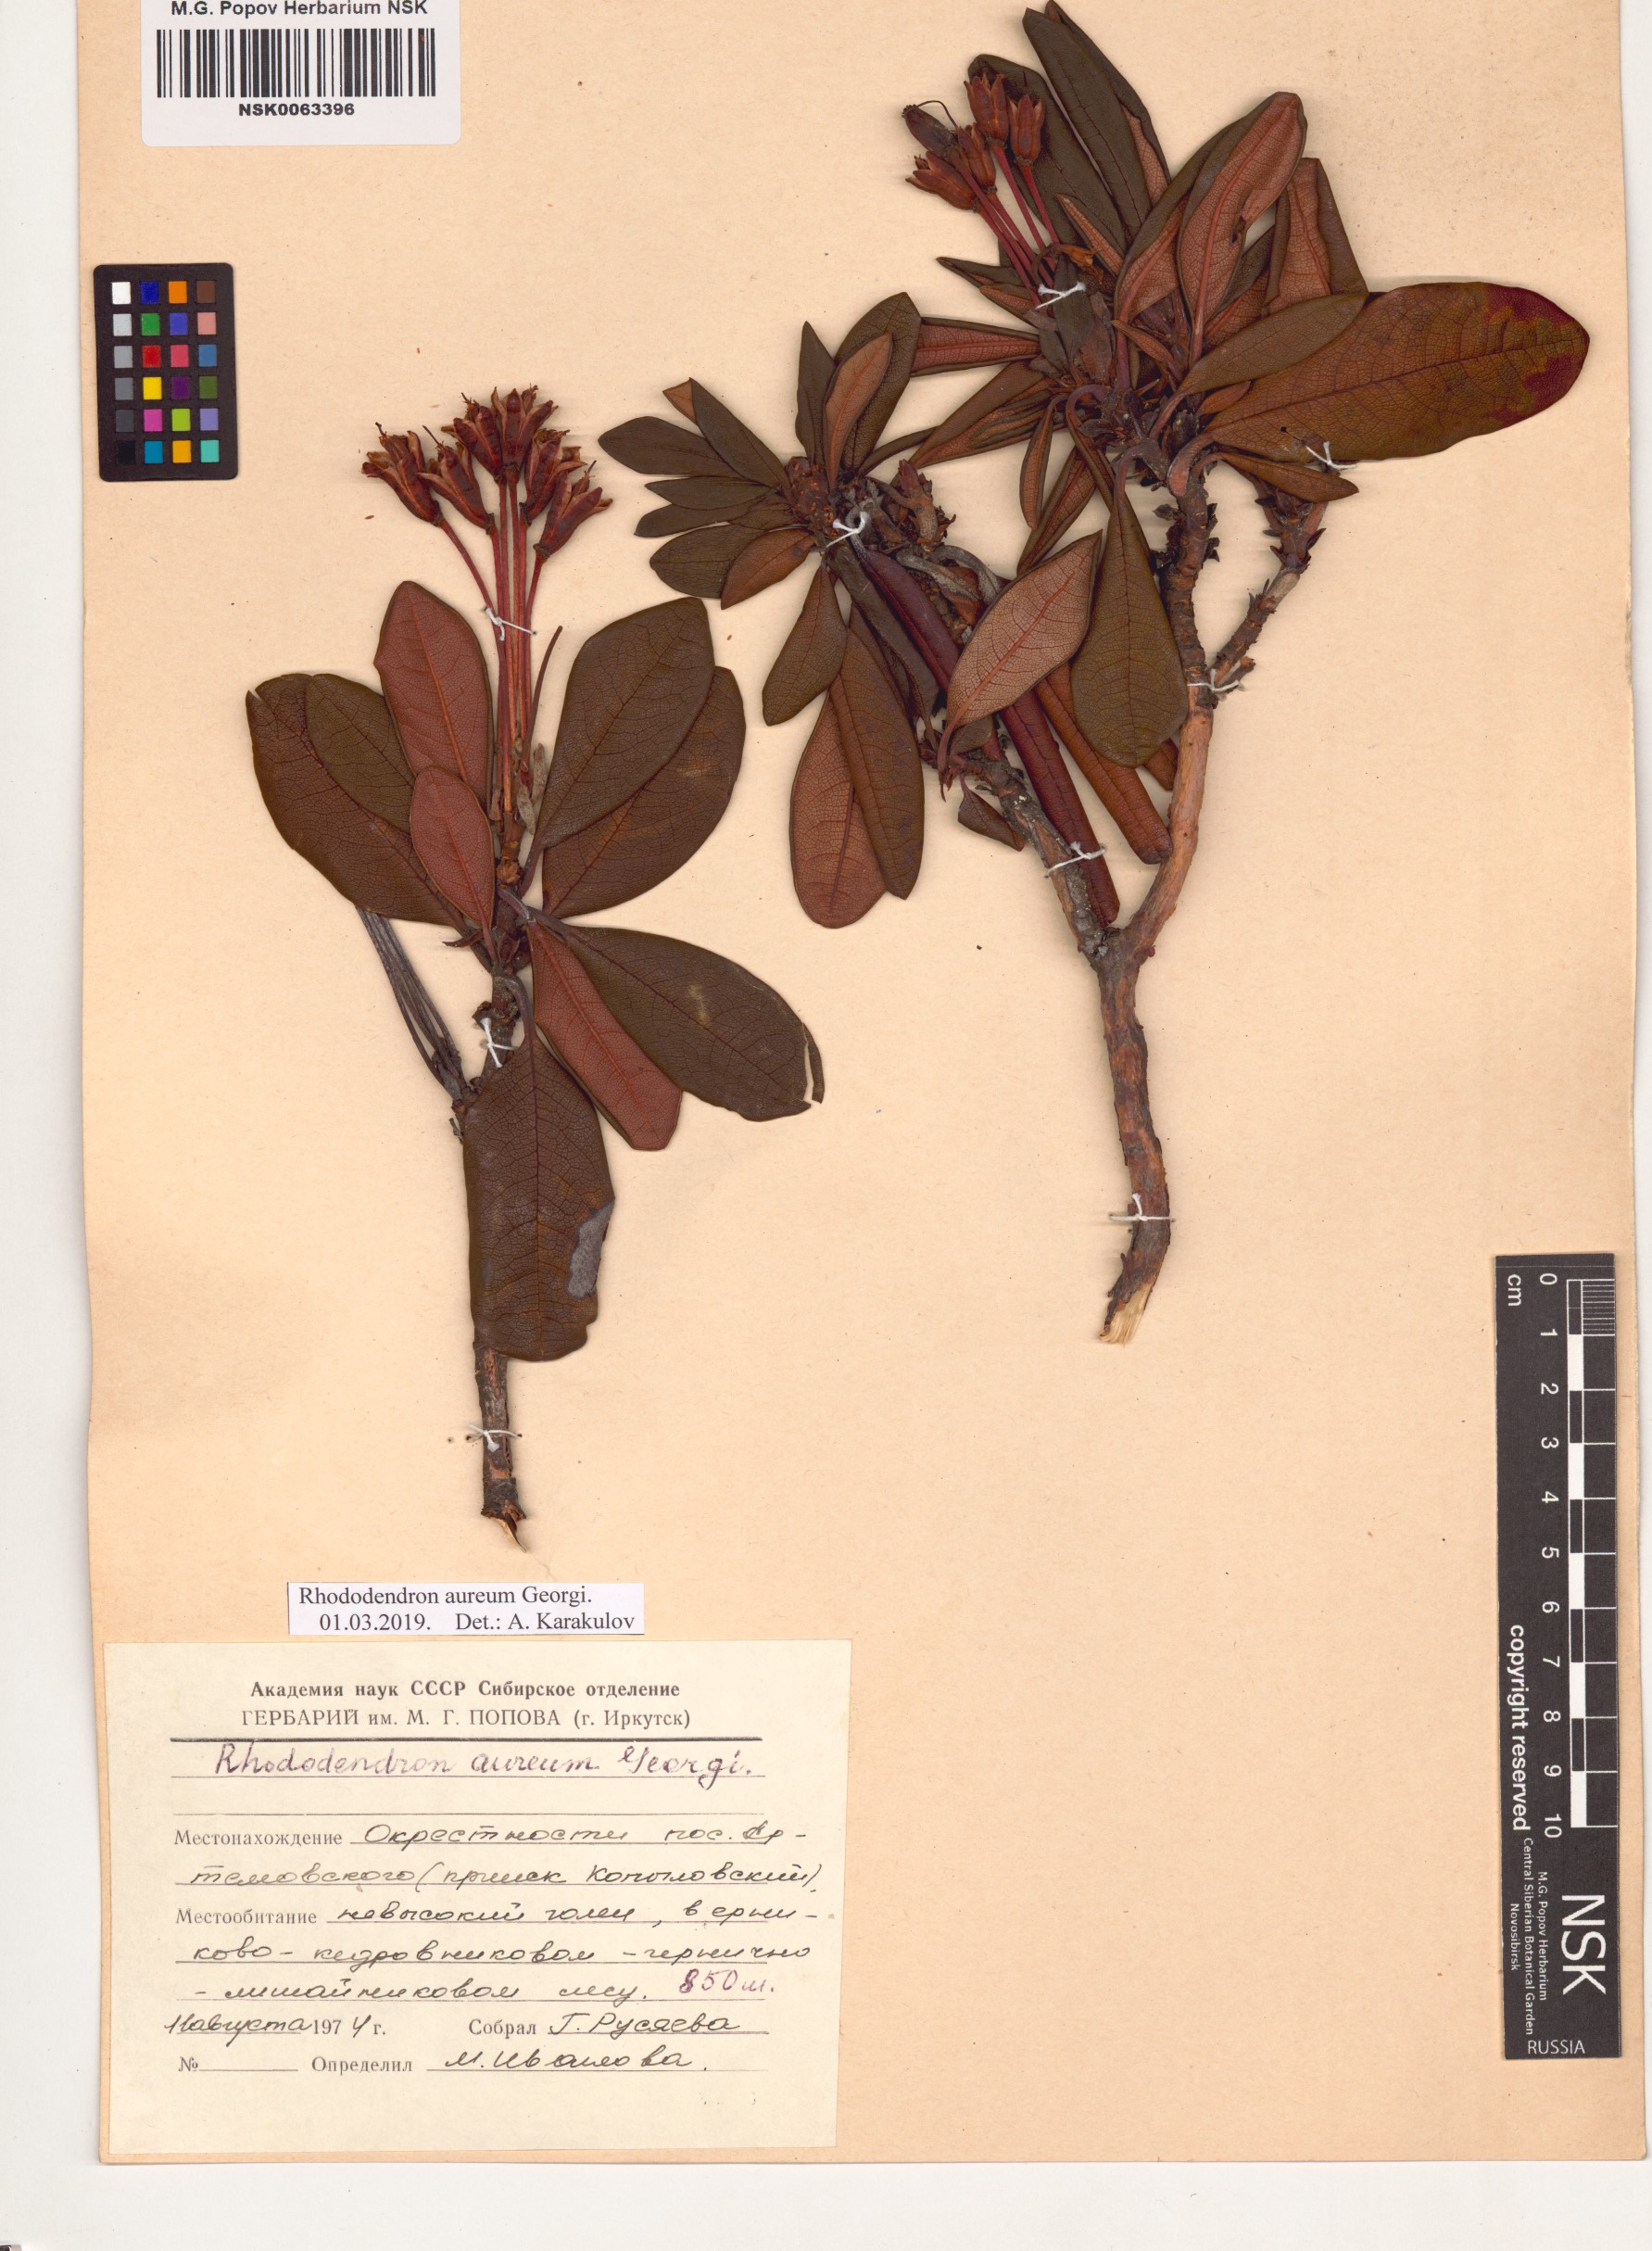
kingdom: Plantae
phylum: Tracheophyta
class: Magnoliopsida
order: Ericales
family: Ericaceae
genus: Rhododendron
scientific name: Rhododendron aureum
